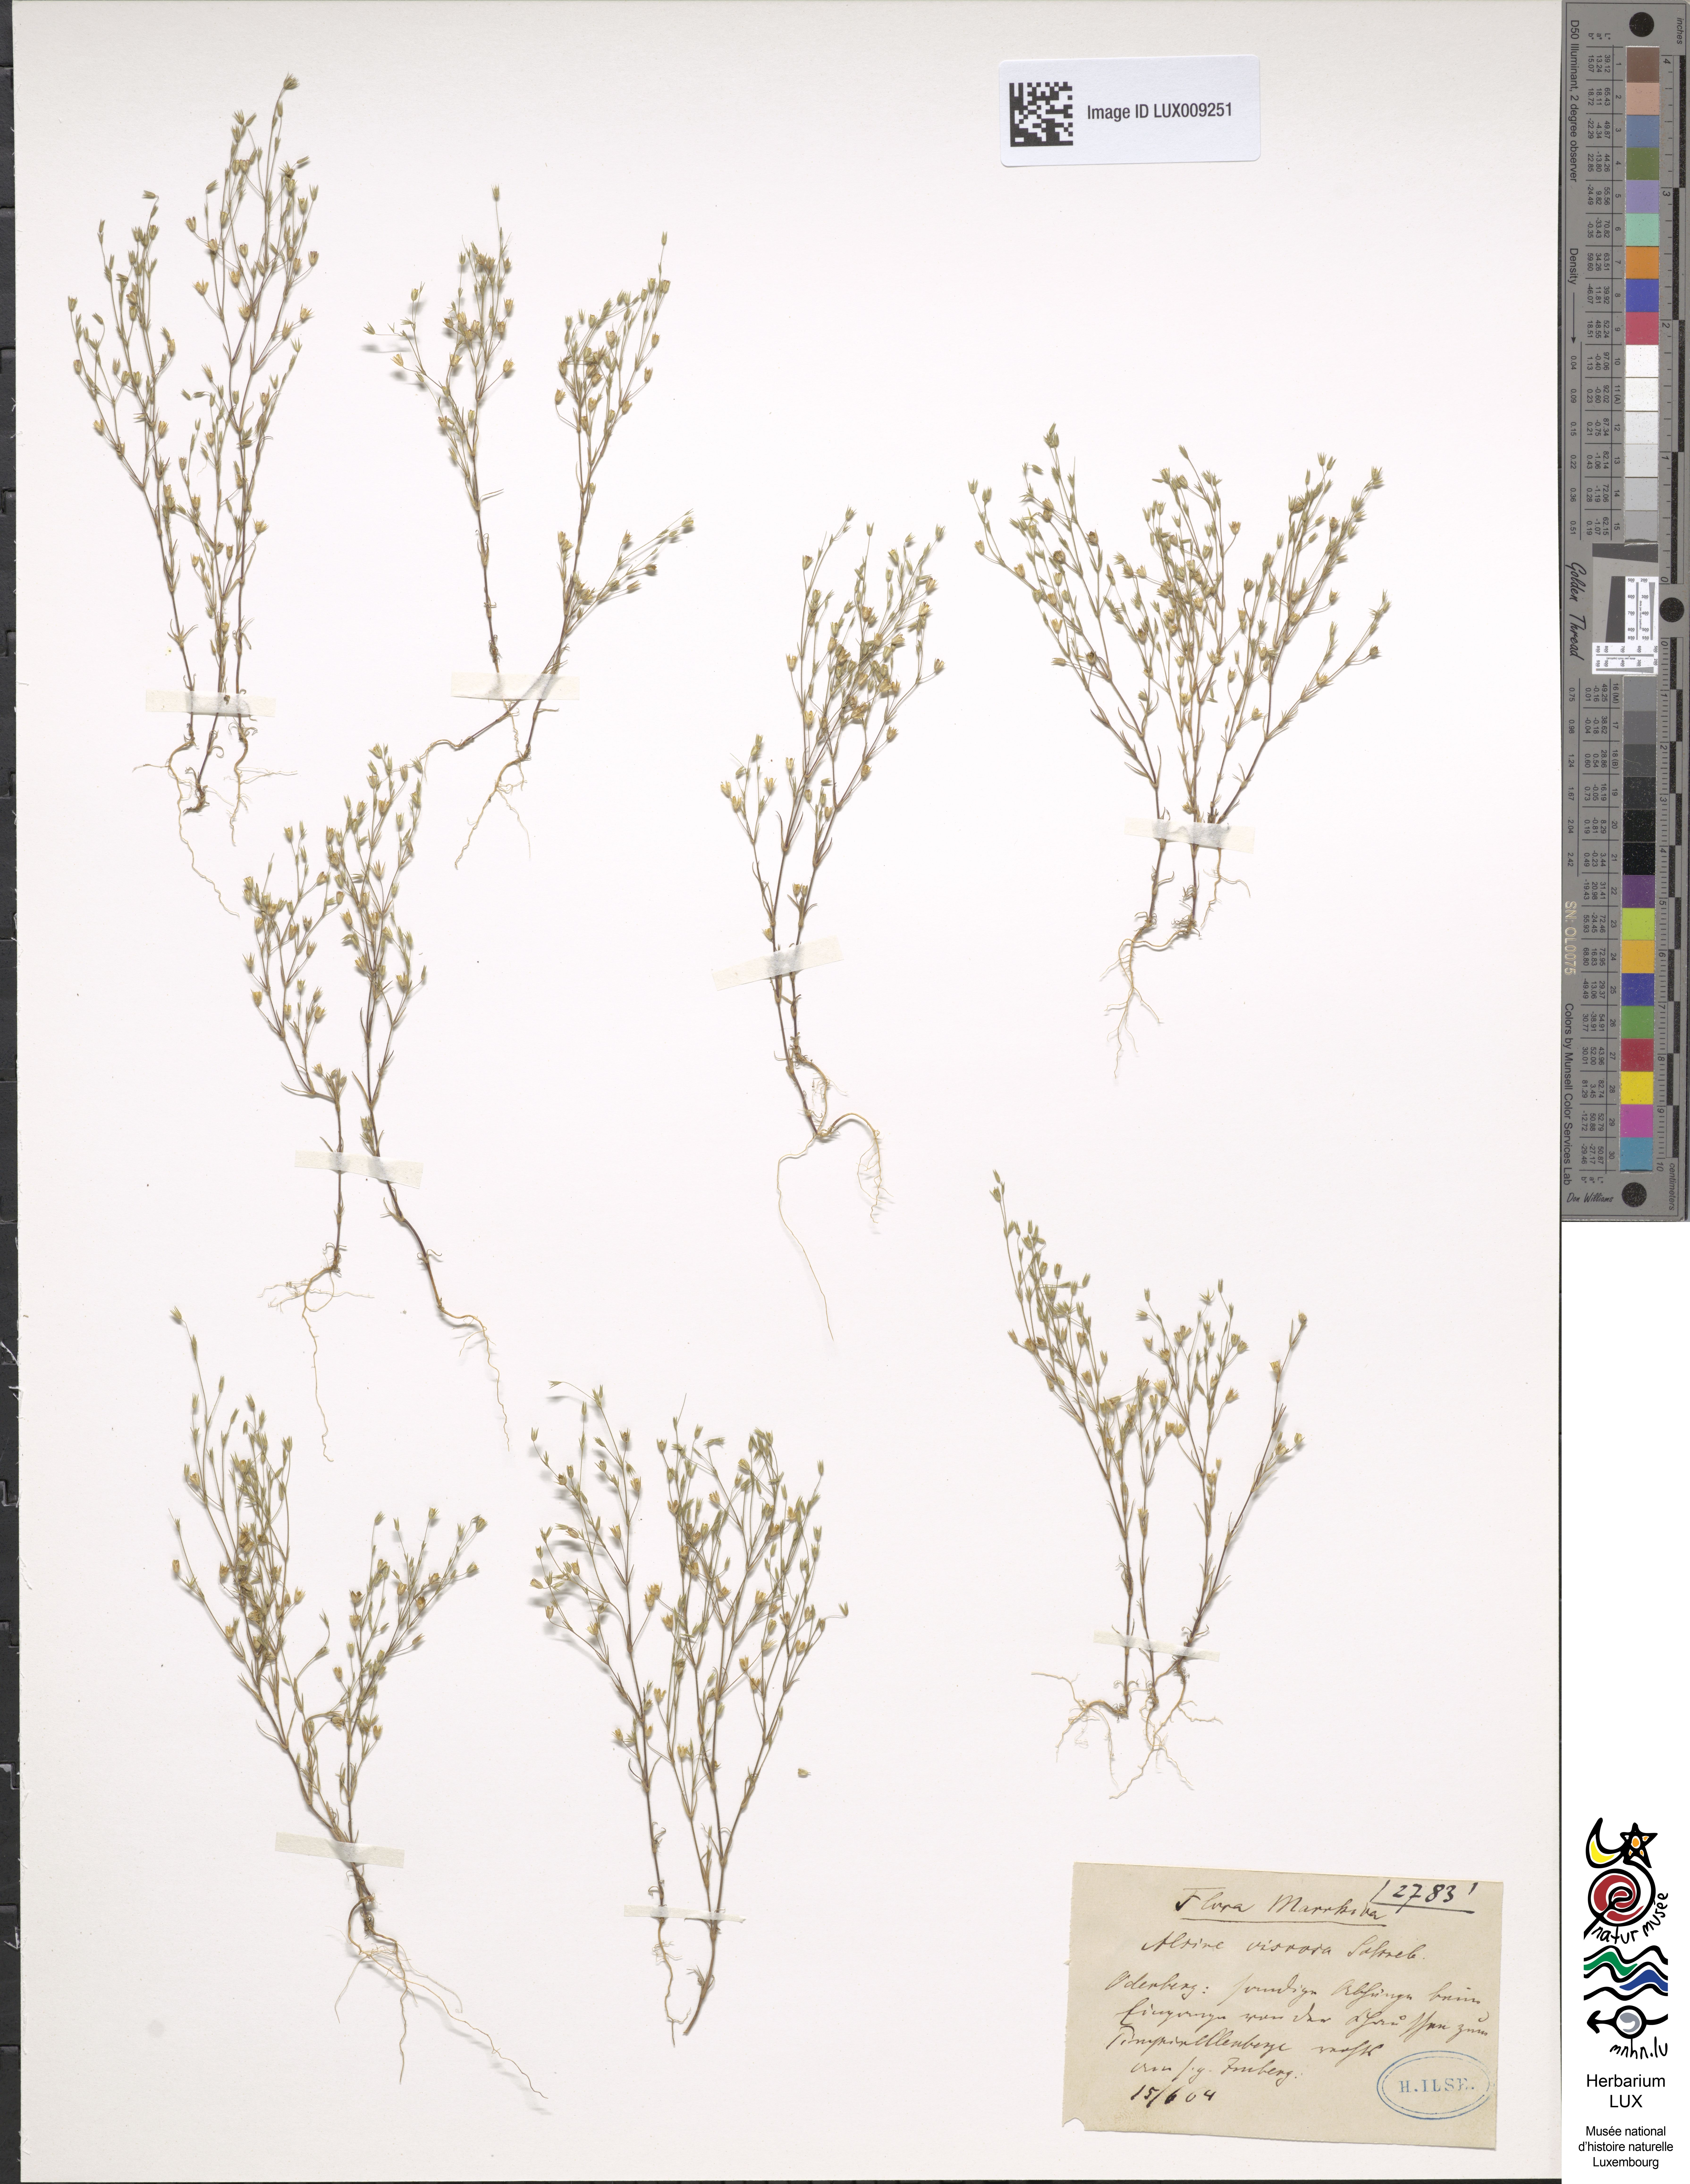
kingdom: Plantae
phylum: Tracheophyta
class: Magnoliopsida
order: Caryophyllales
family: Caryophyllaceae
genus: Sabulina
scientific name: Sabulina viscosa
